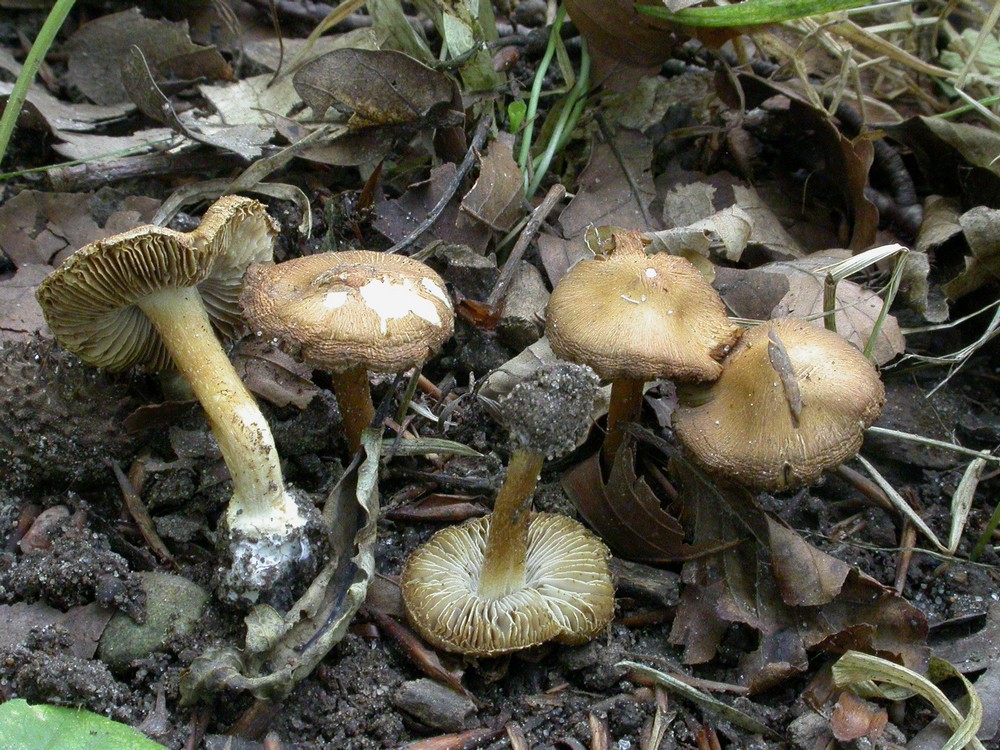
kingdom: Fungi
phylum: Basidiomycota
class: Agaricomycetes
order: Agaricales
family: Inocybaceae
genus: Inosperma
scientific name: Inosperma
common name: strågul trævlhat
